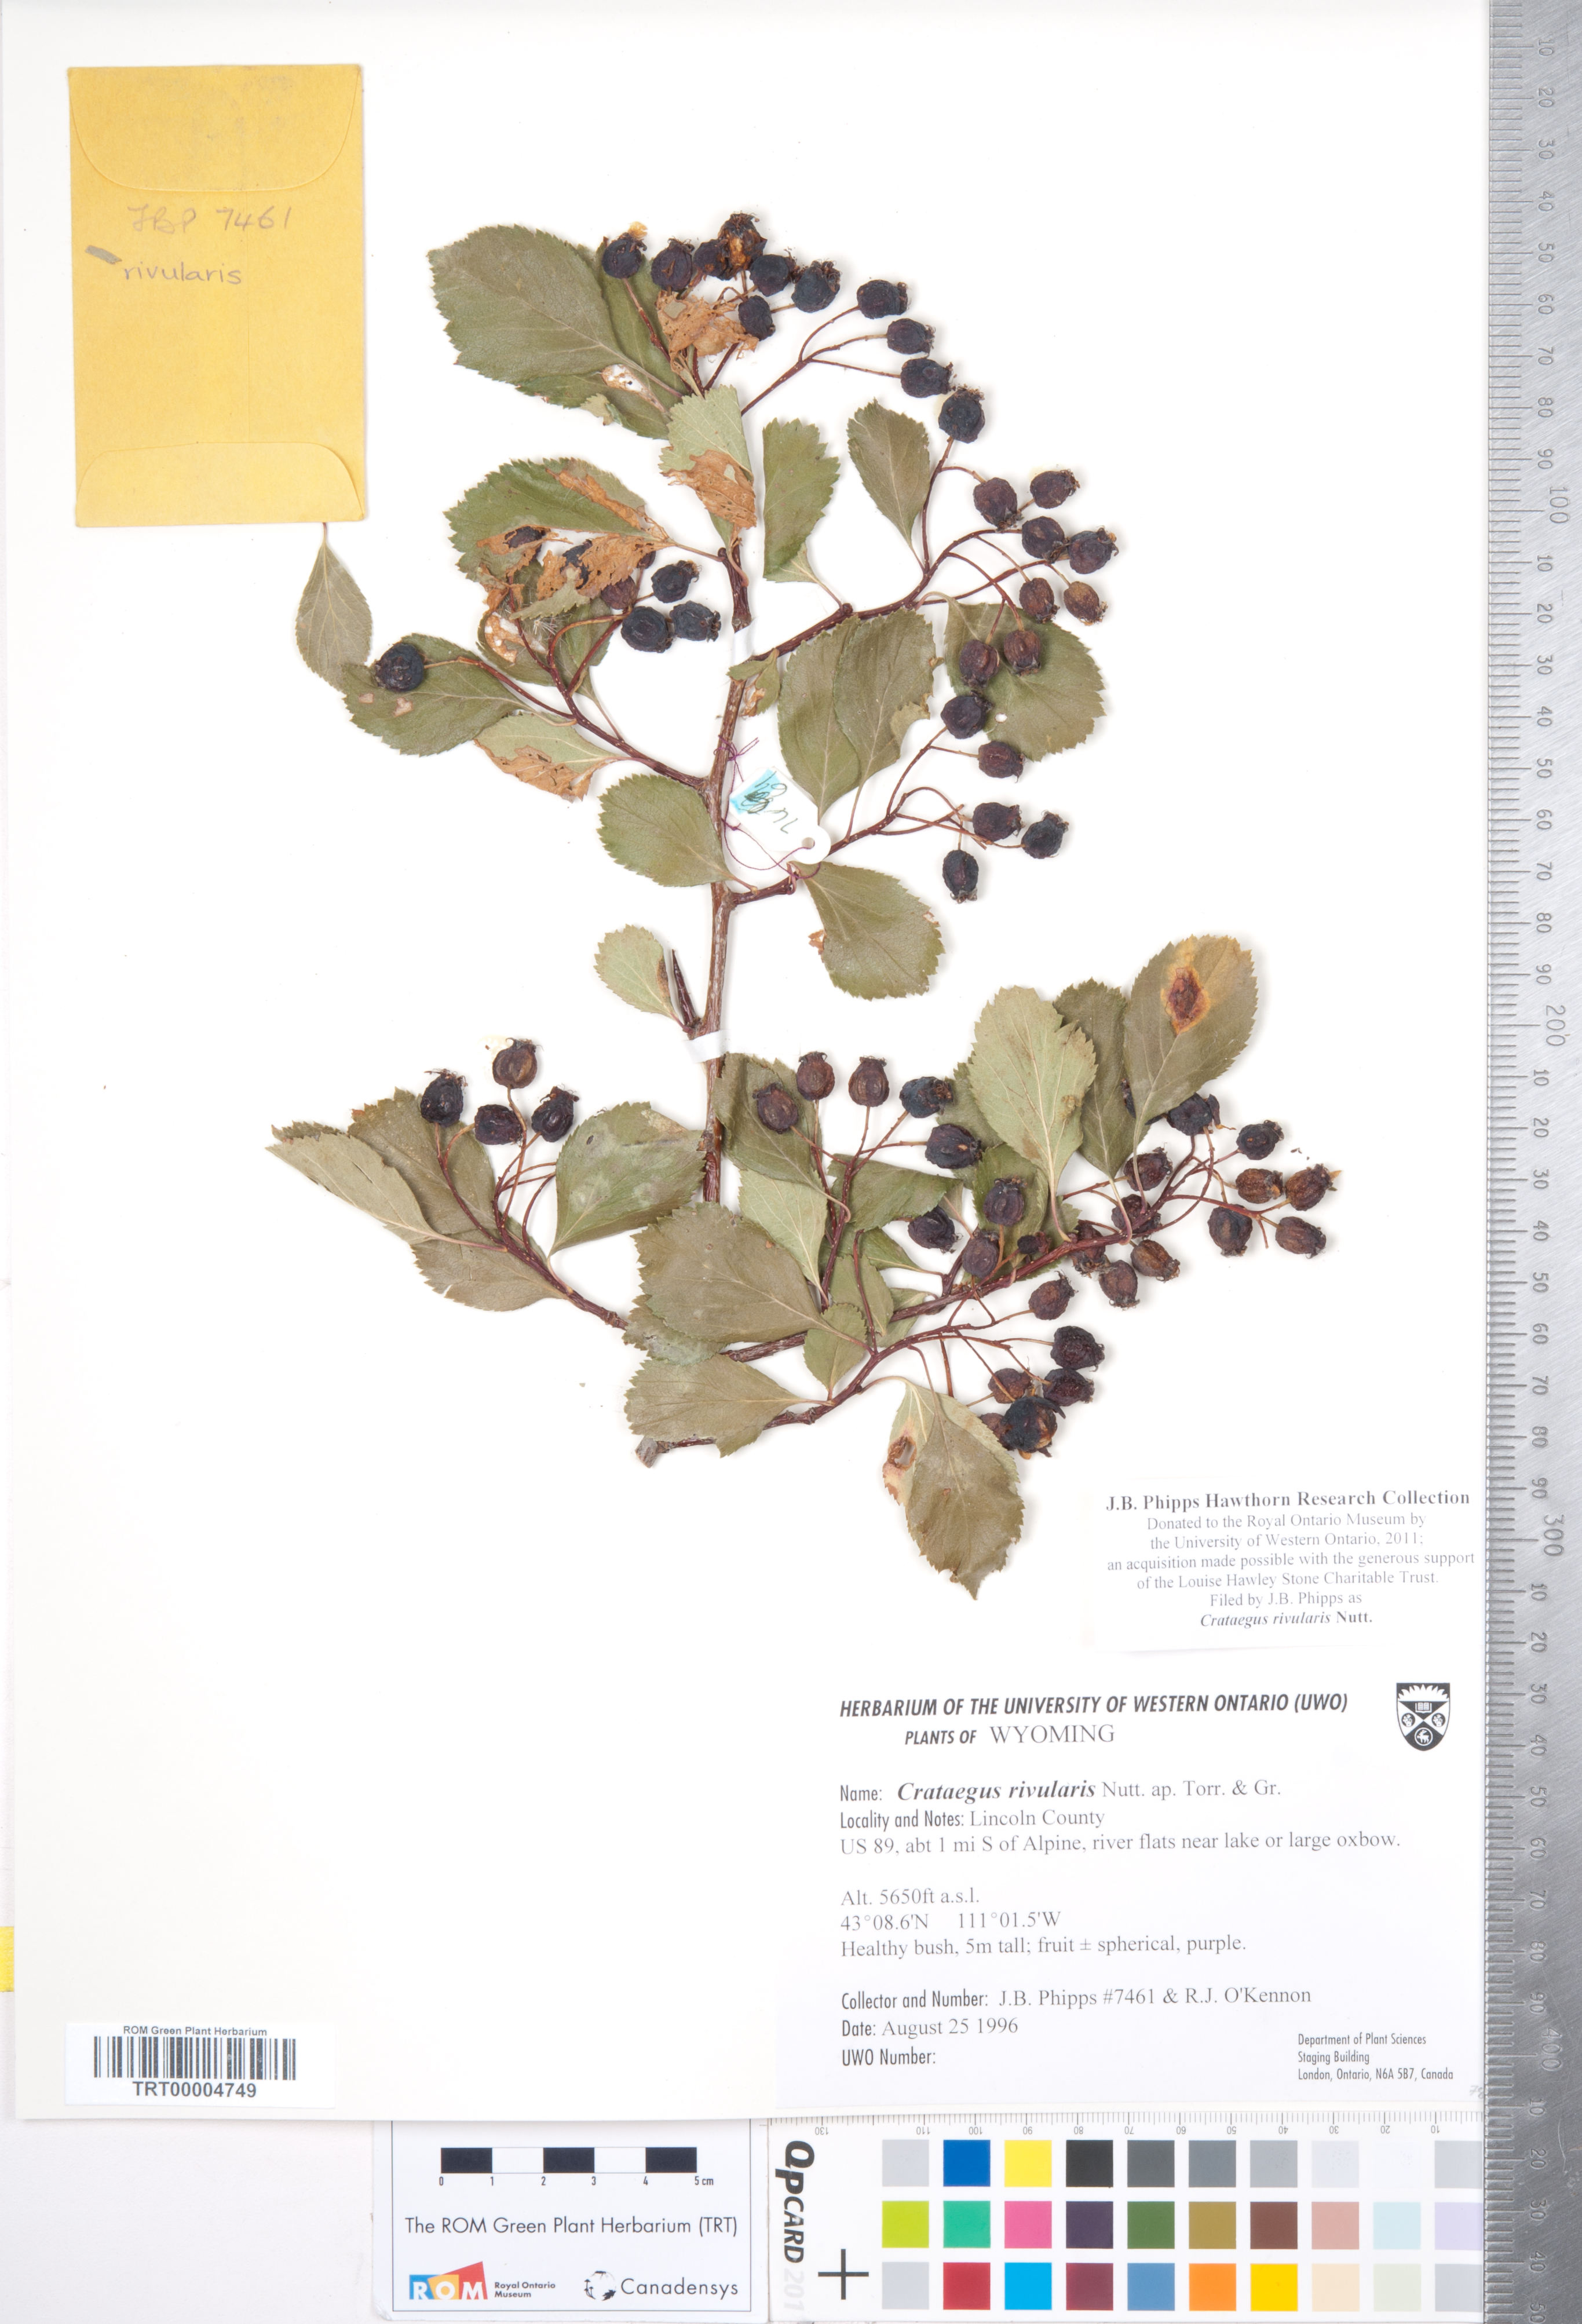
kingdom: Plantae
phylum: Tracheophyta
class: Magnoliopsida
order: Rosales
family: Rosaceae
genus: Crataegus
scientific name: Crataegus rivularis
